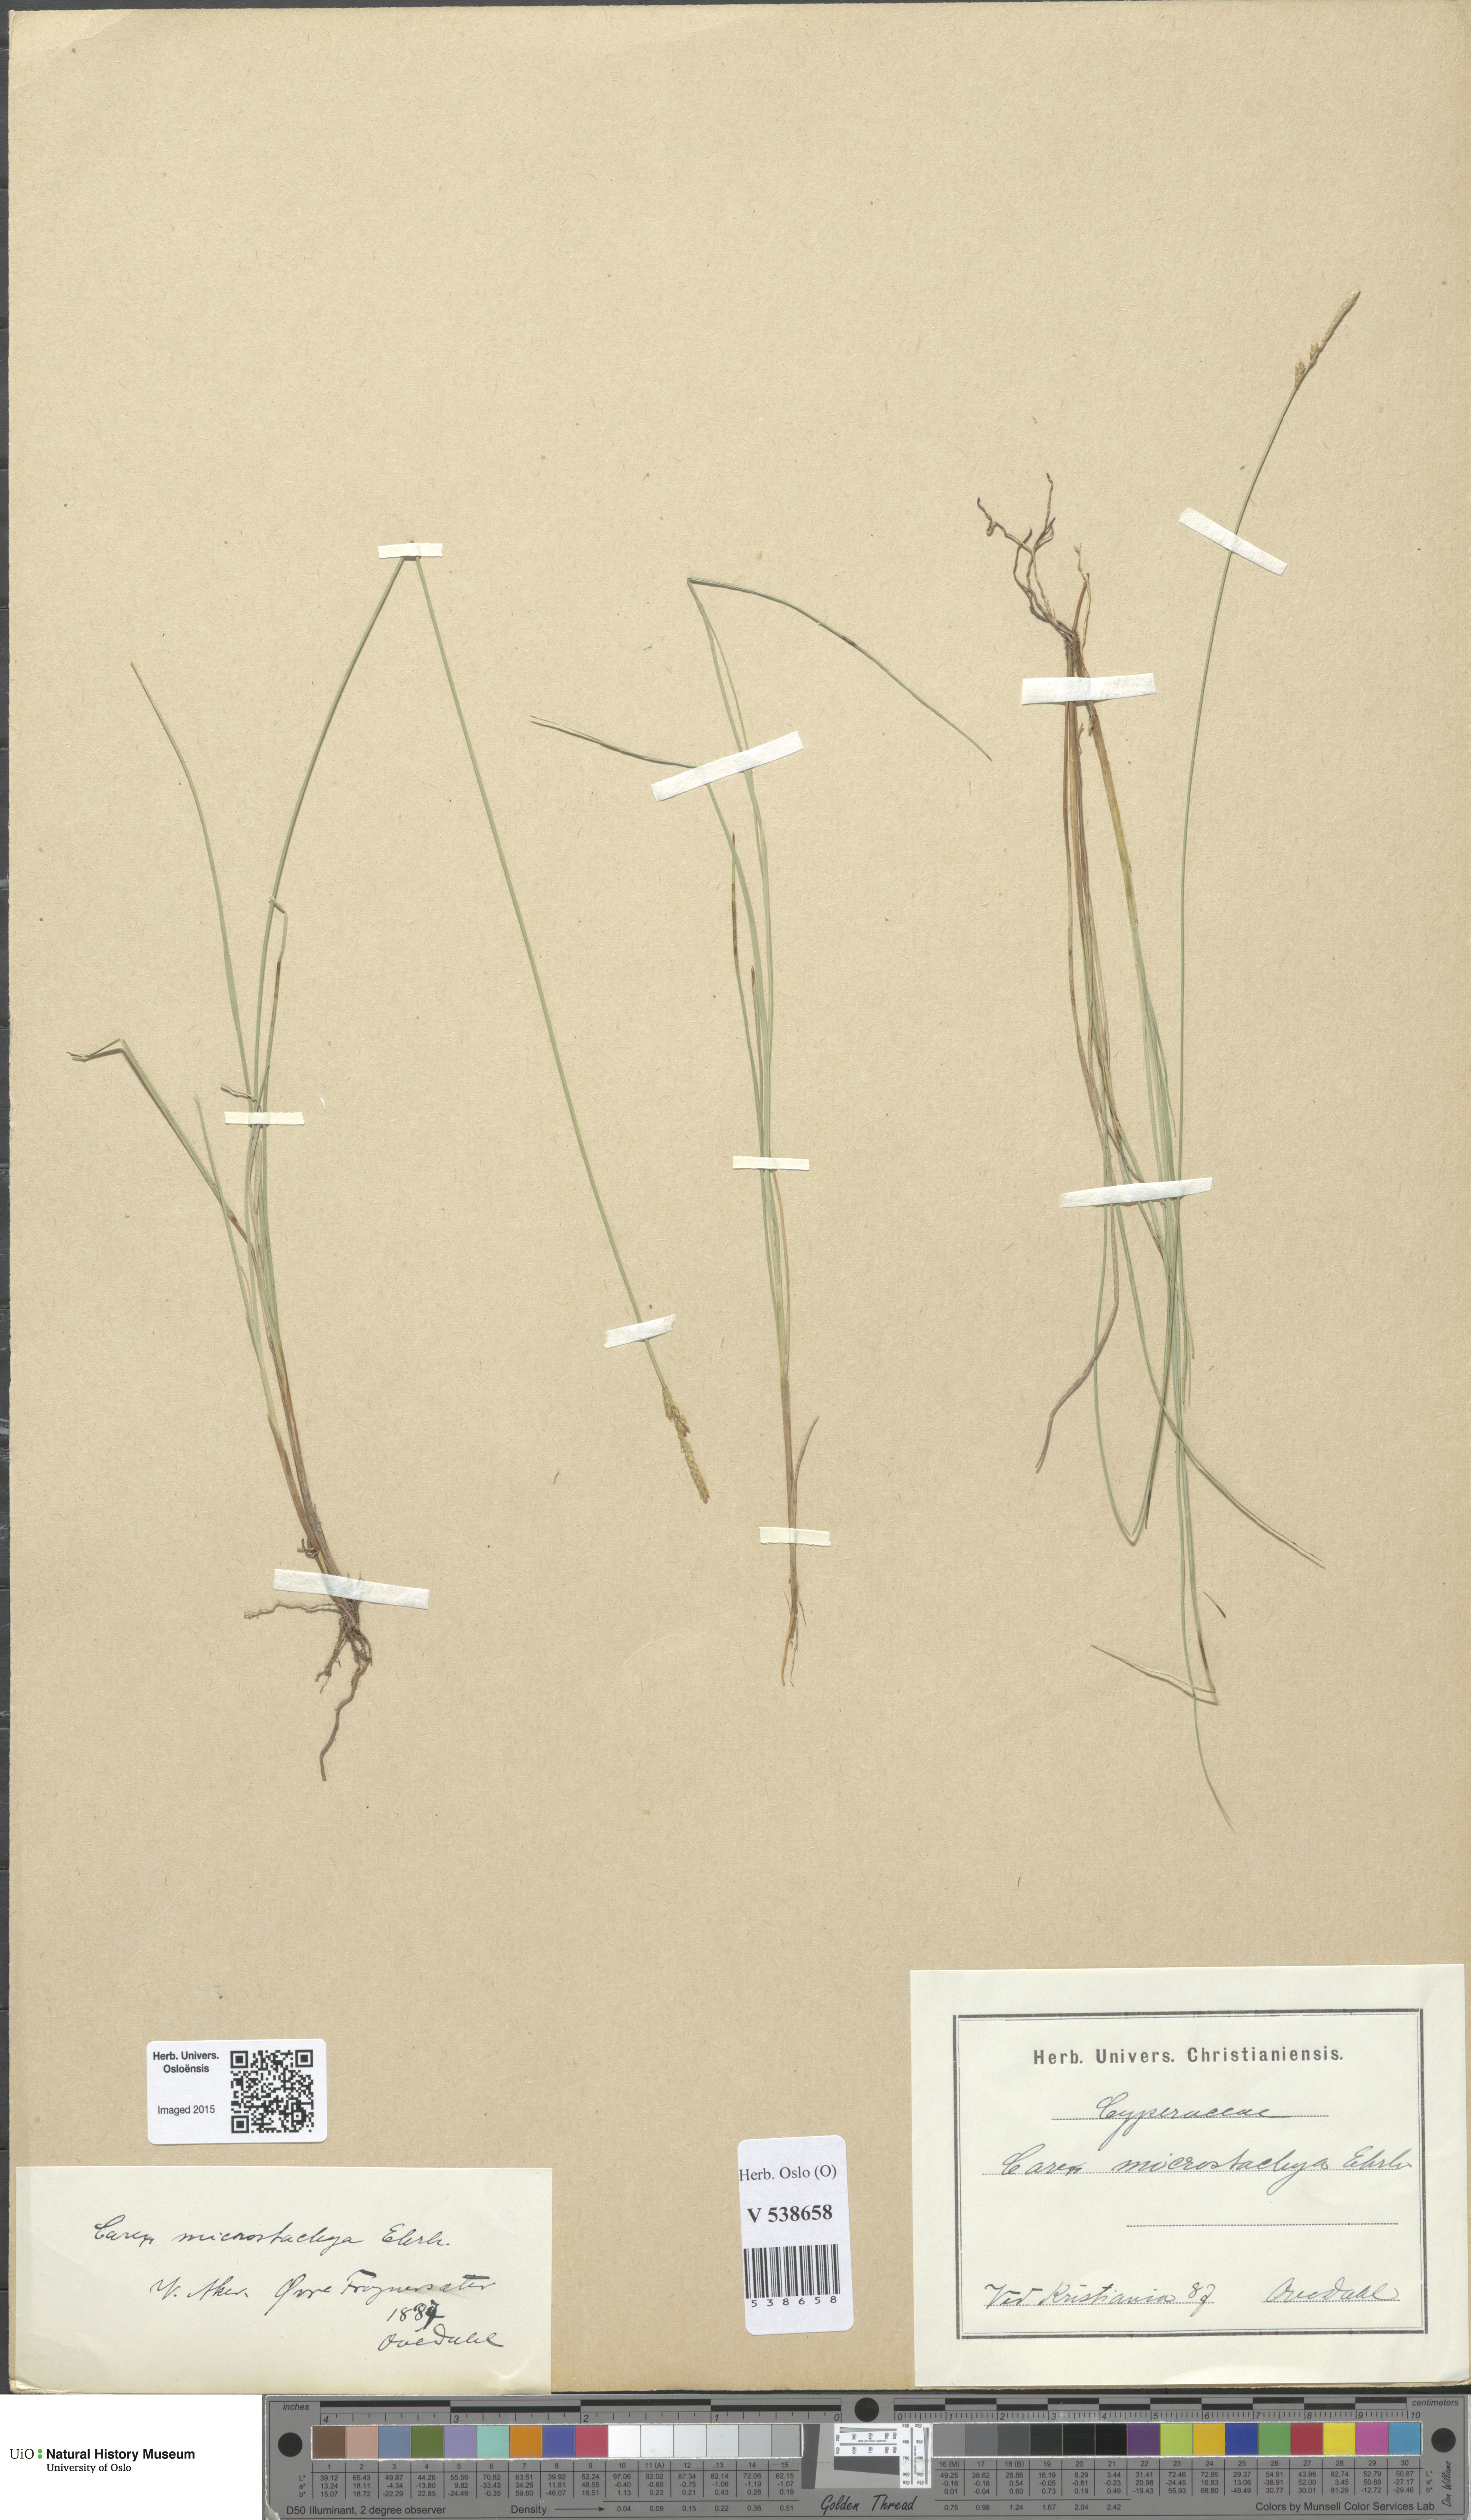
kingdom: Plantae
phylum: Tracheophyta
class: Liliopsida
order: Poales
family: Cyperaceae
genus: Carex
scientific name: Carex
